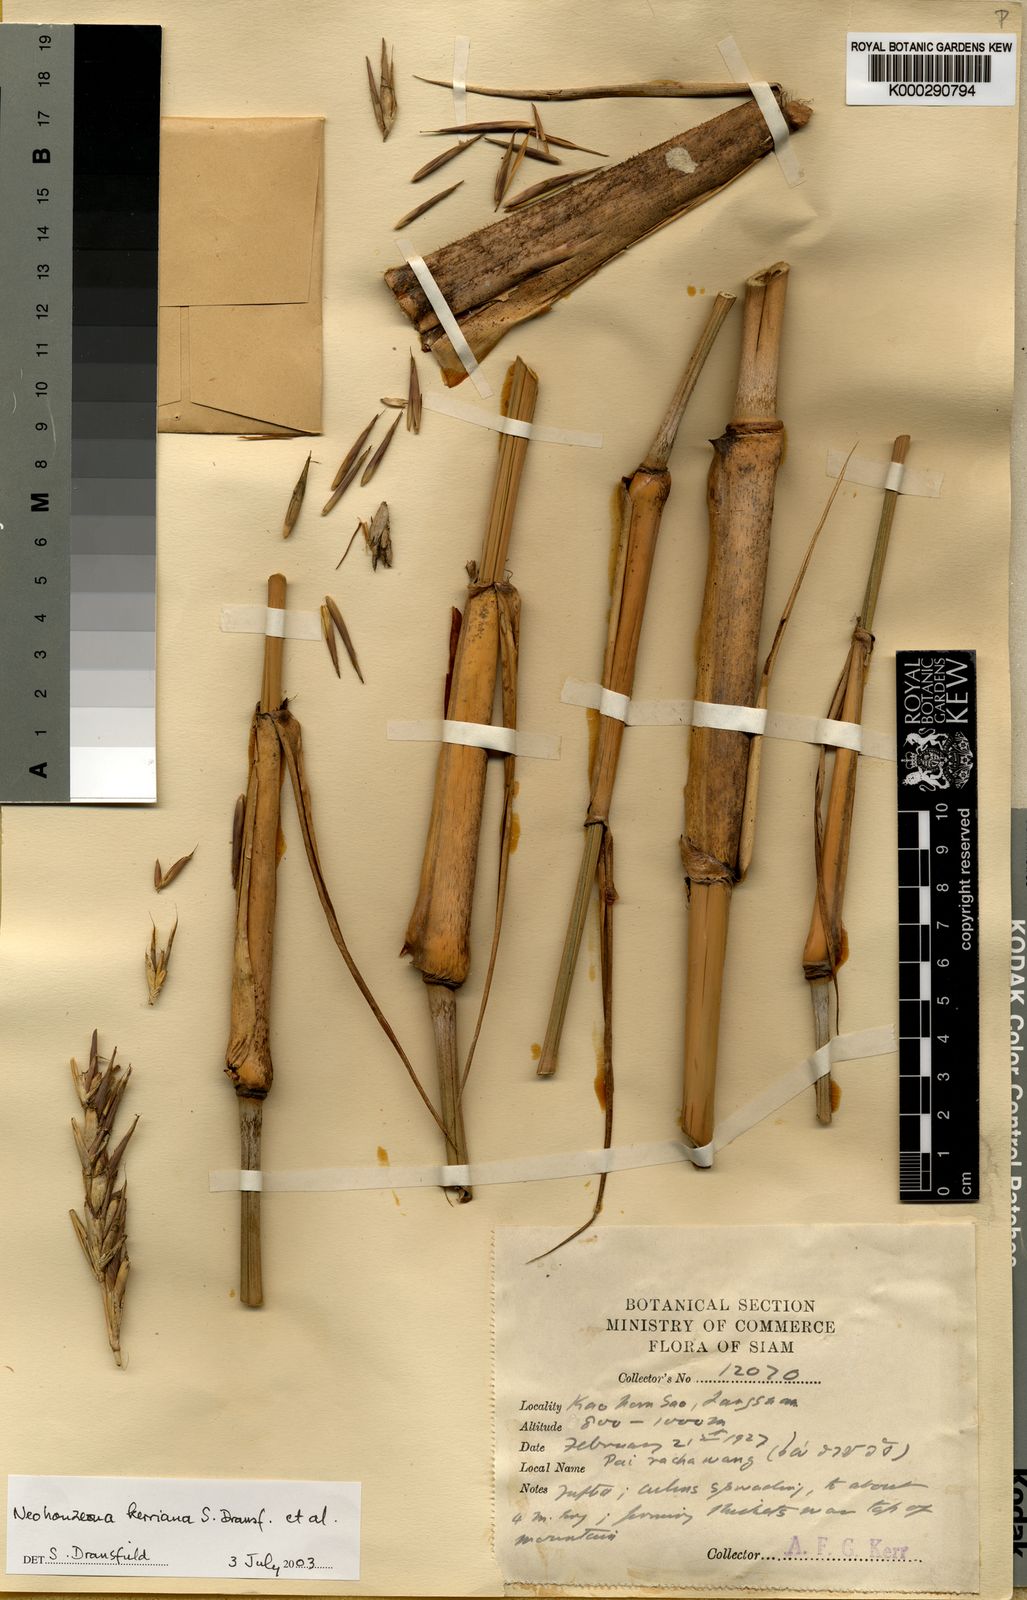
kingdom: Plantae
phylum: Tracheophyta
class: Liliopsida
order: Poales
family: Poaceae
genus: Schizostachyum
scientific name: Schizostachyum
